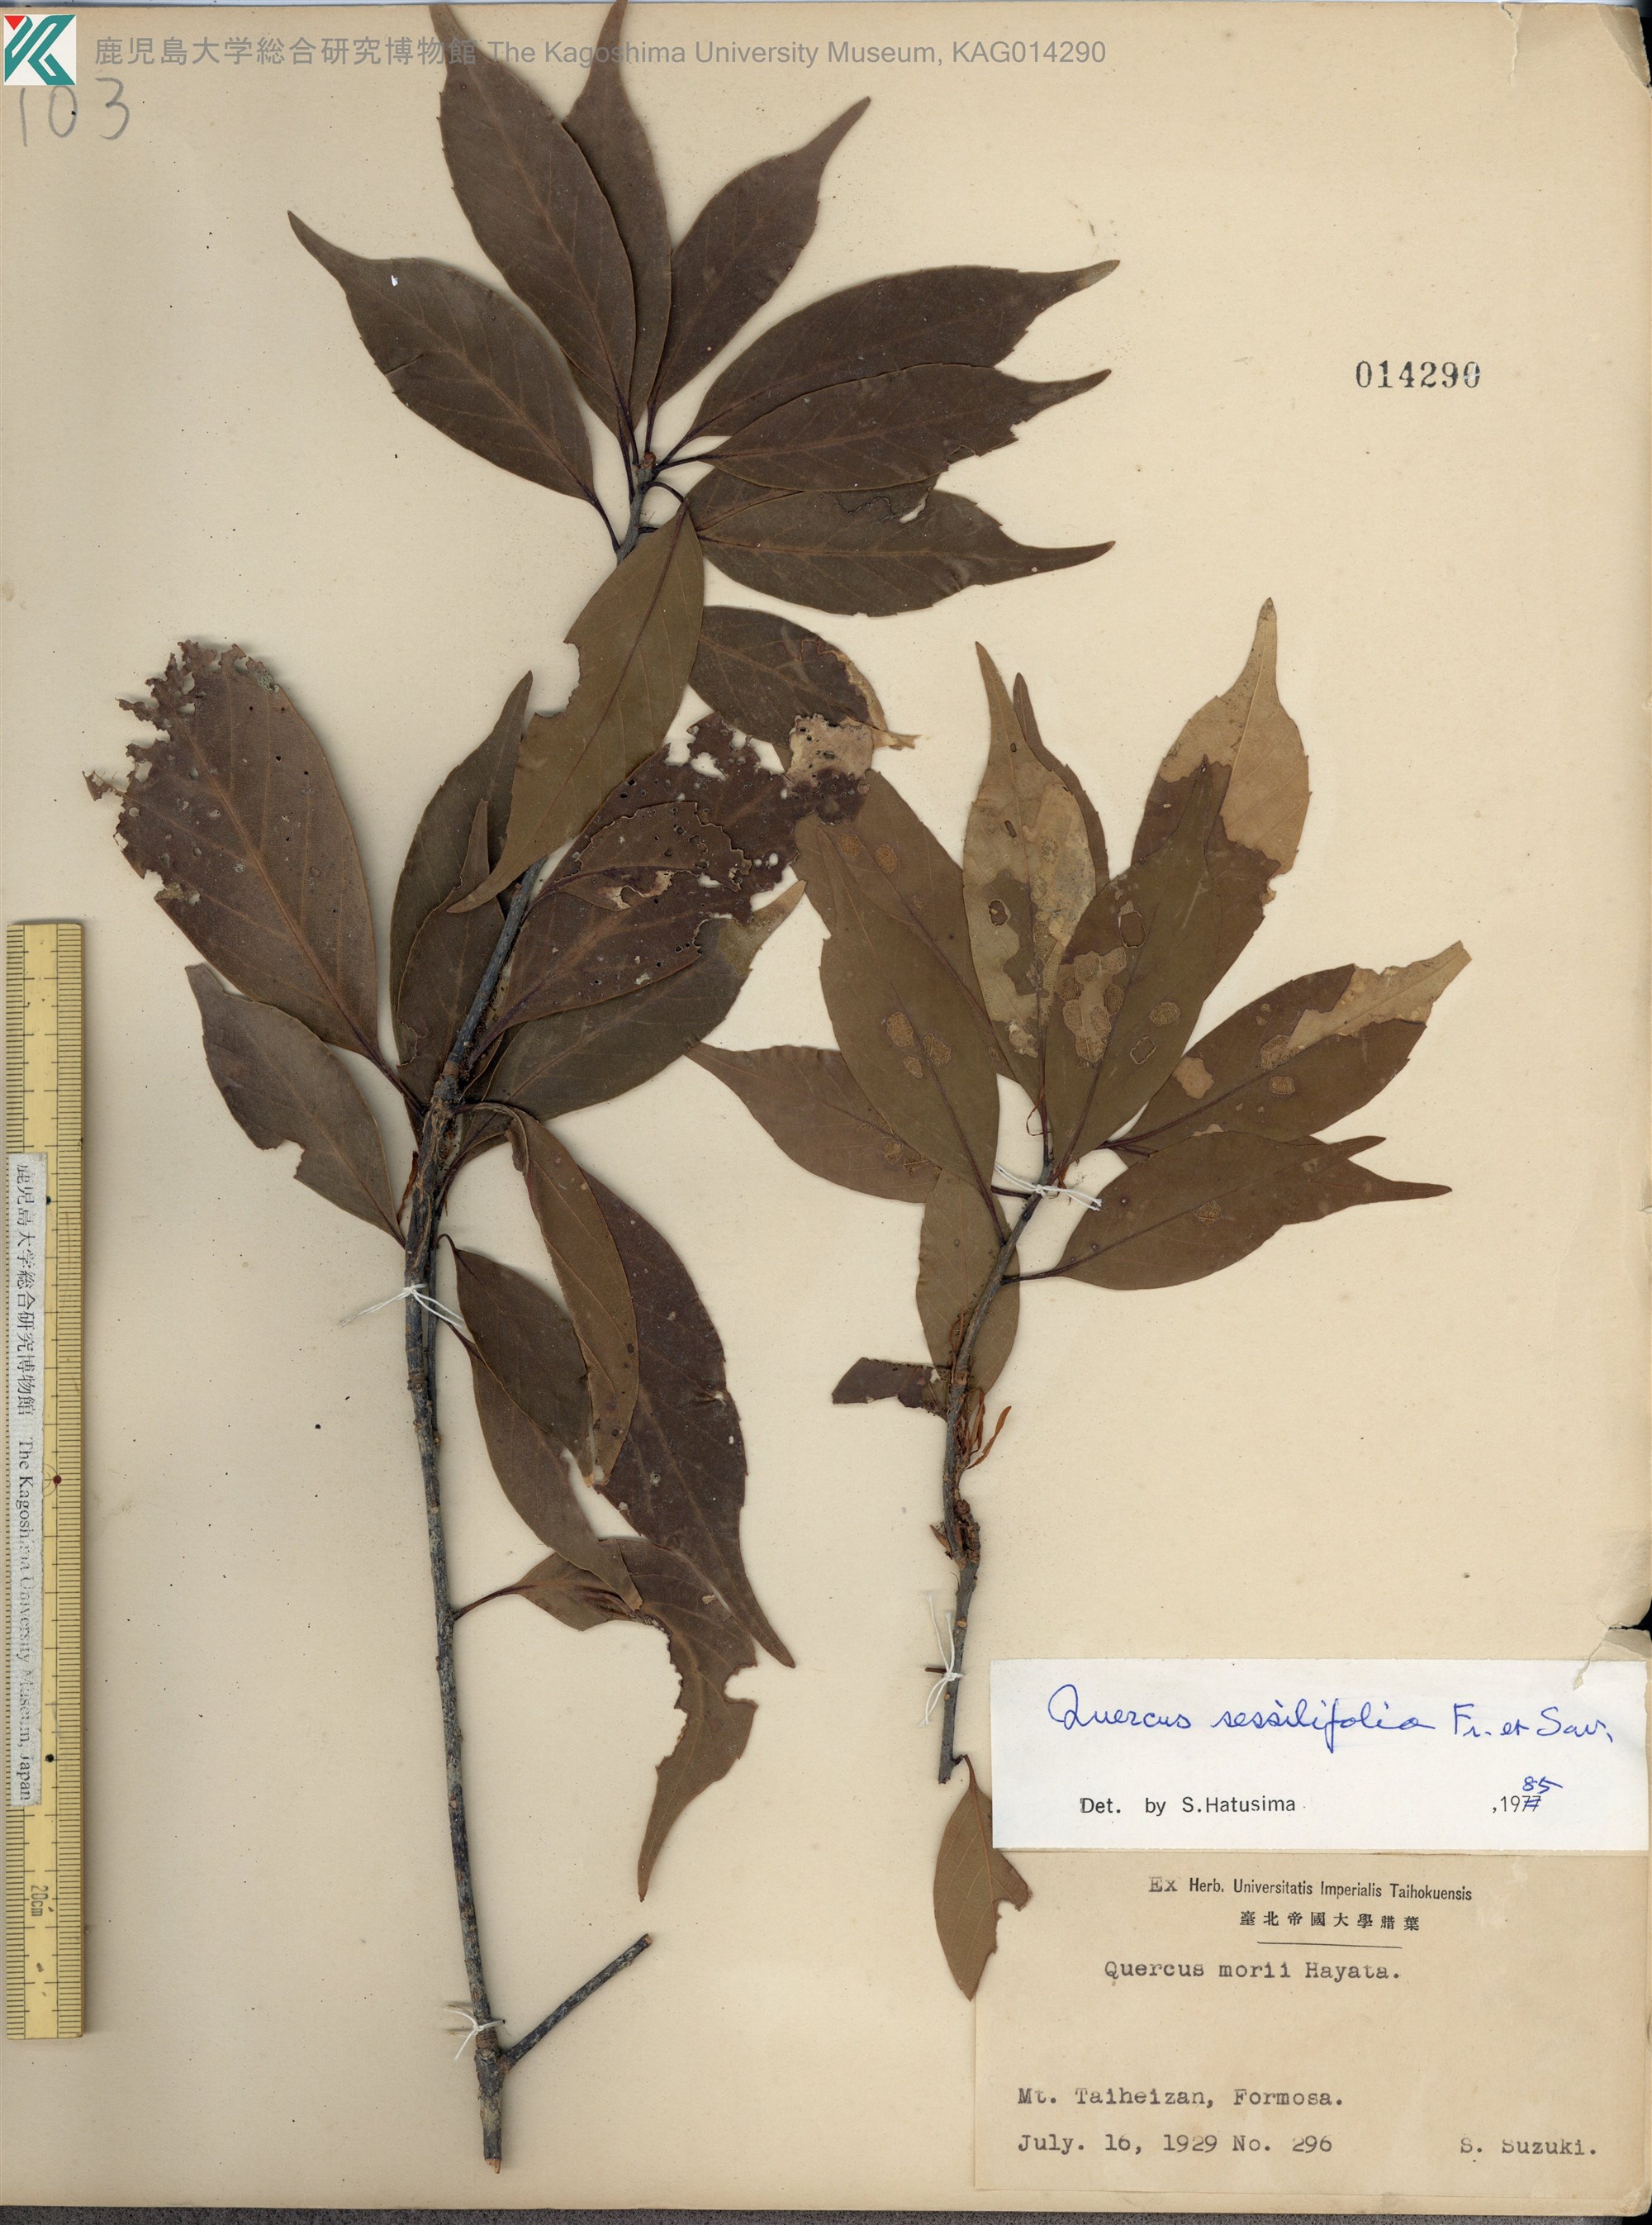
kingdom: Plantae
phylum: Tracheophyta
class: Magnoliopsida
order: Fagales
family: Fagaceae
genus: Quercus
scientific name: Quercus sessilifolia
